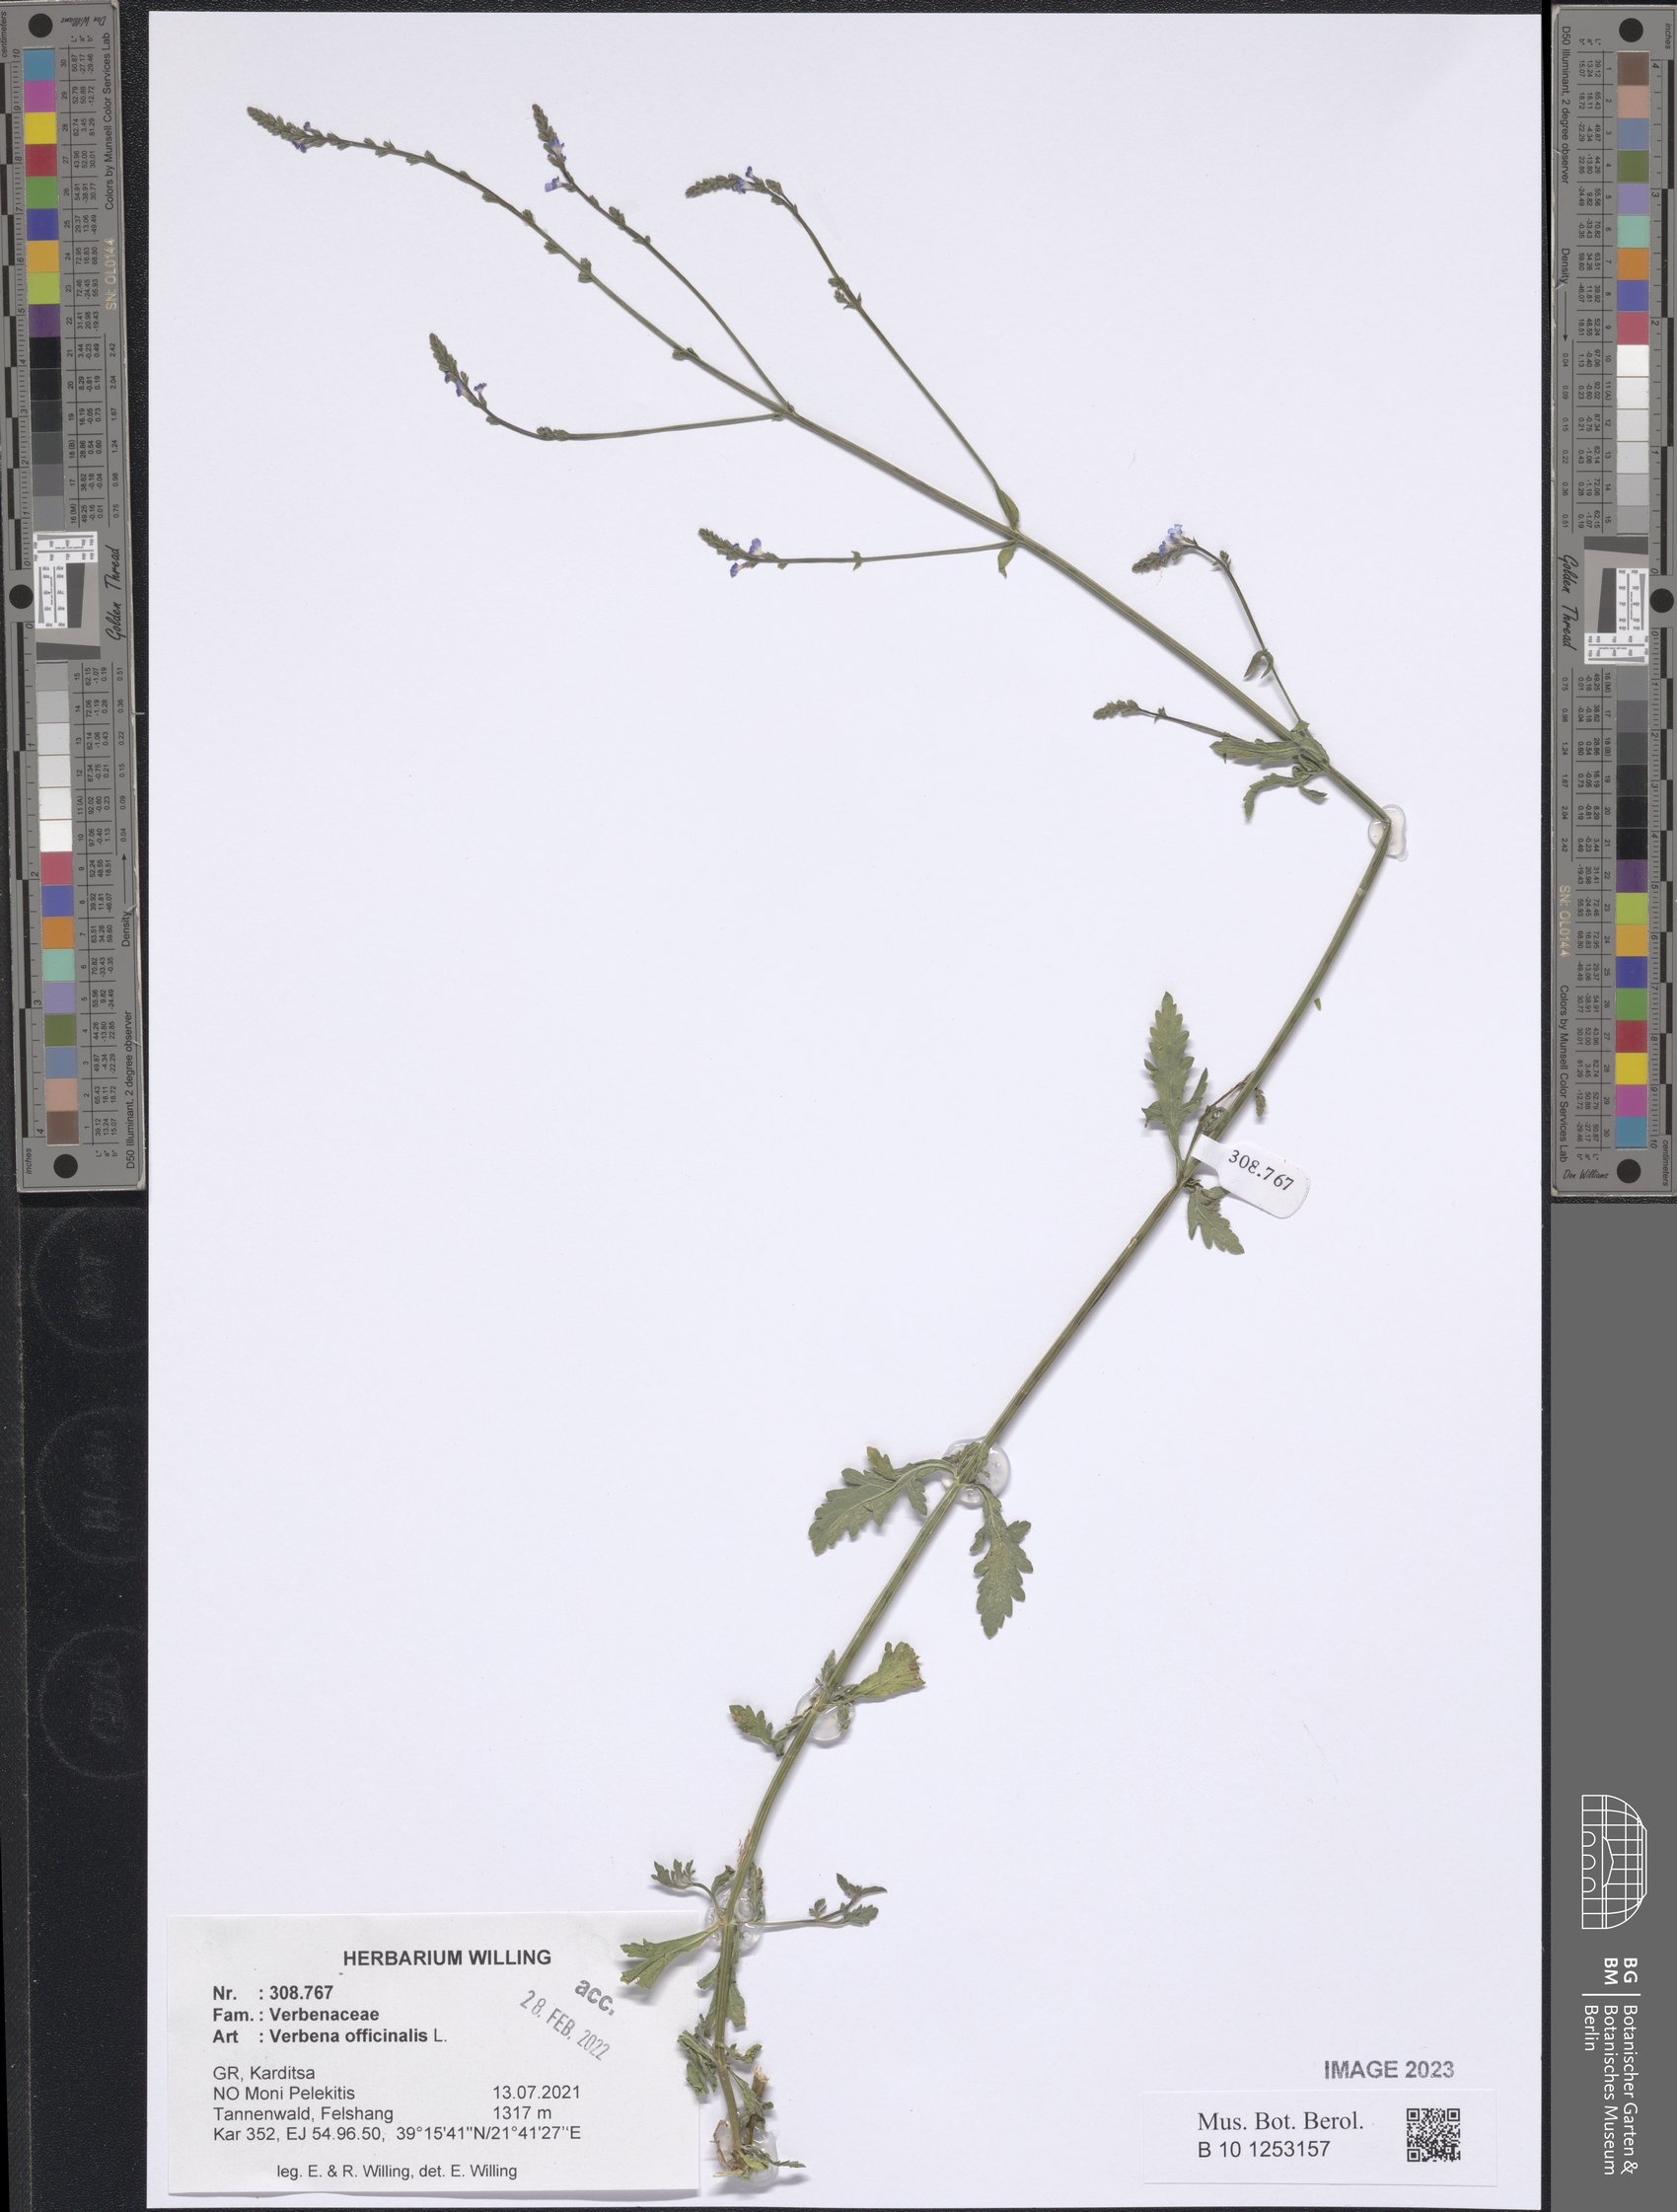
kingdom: Plantae
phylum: Tracheophyta
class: Magnoliopsida
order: Lamiales
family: Verbenaceae
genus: Verbena
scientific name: Verbena officinalis
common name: Vervain
